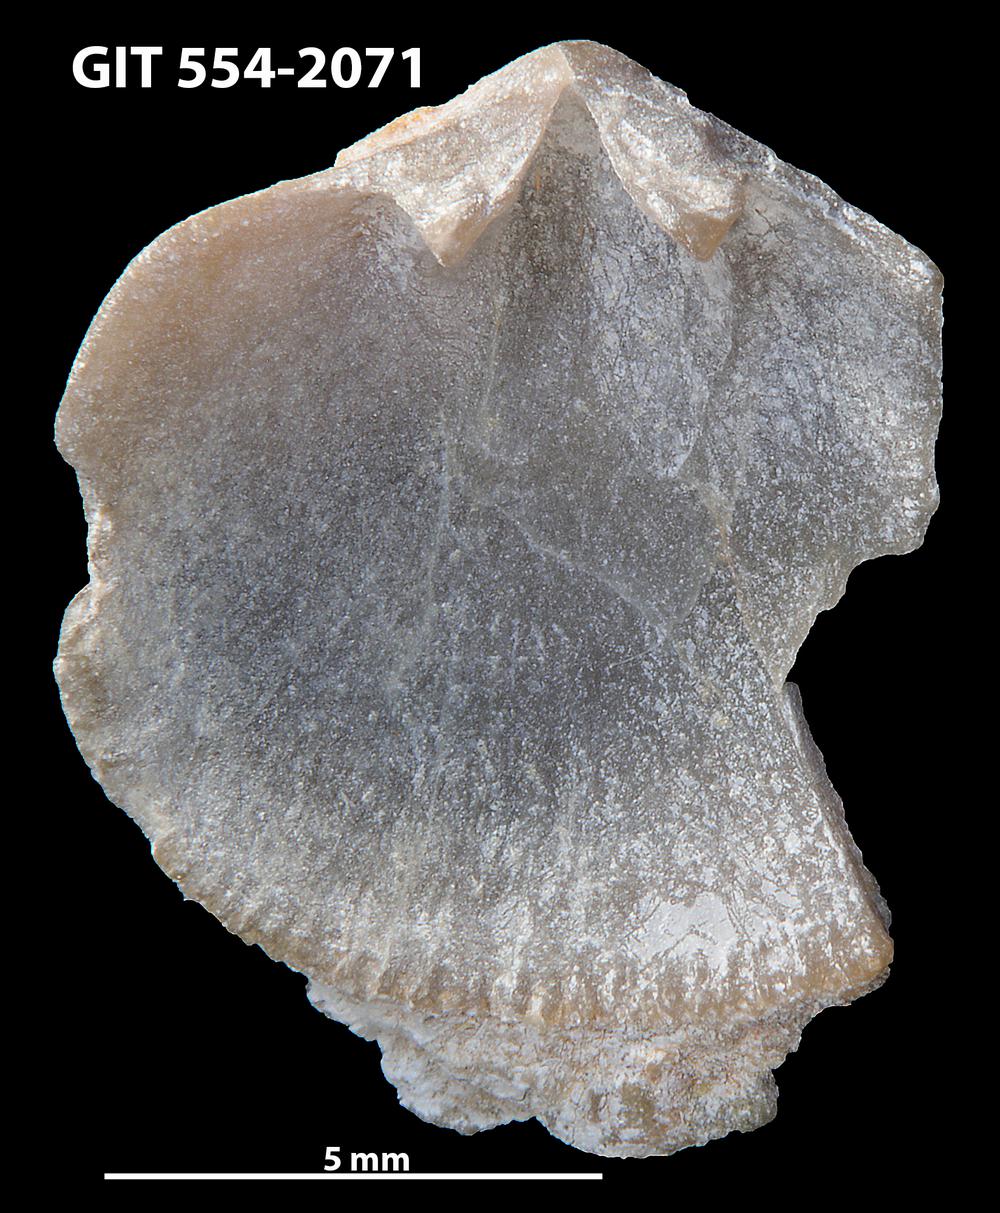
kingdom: Animalia
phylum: Brachiopoda
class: Rhynchonellata
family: Dalmanellidae
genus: Isorthis
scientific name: Isorthis Onniella mediocra
